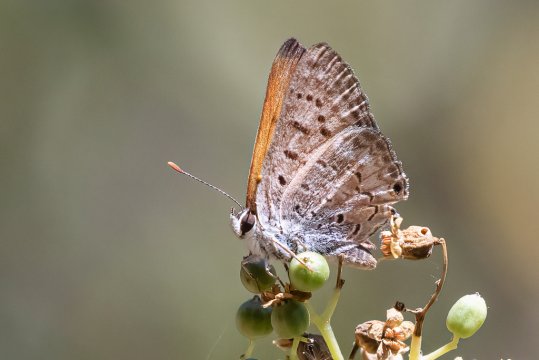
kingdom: Animalia
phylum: Arthropoda
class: Insecta
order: Lepidoptera
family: Sesiidae
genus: Sesia
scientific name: Sesia Lycaena arota
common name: Tailed Copper
